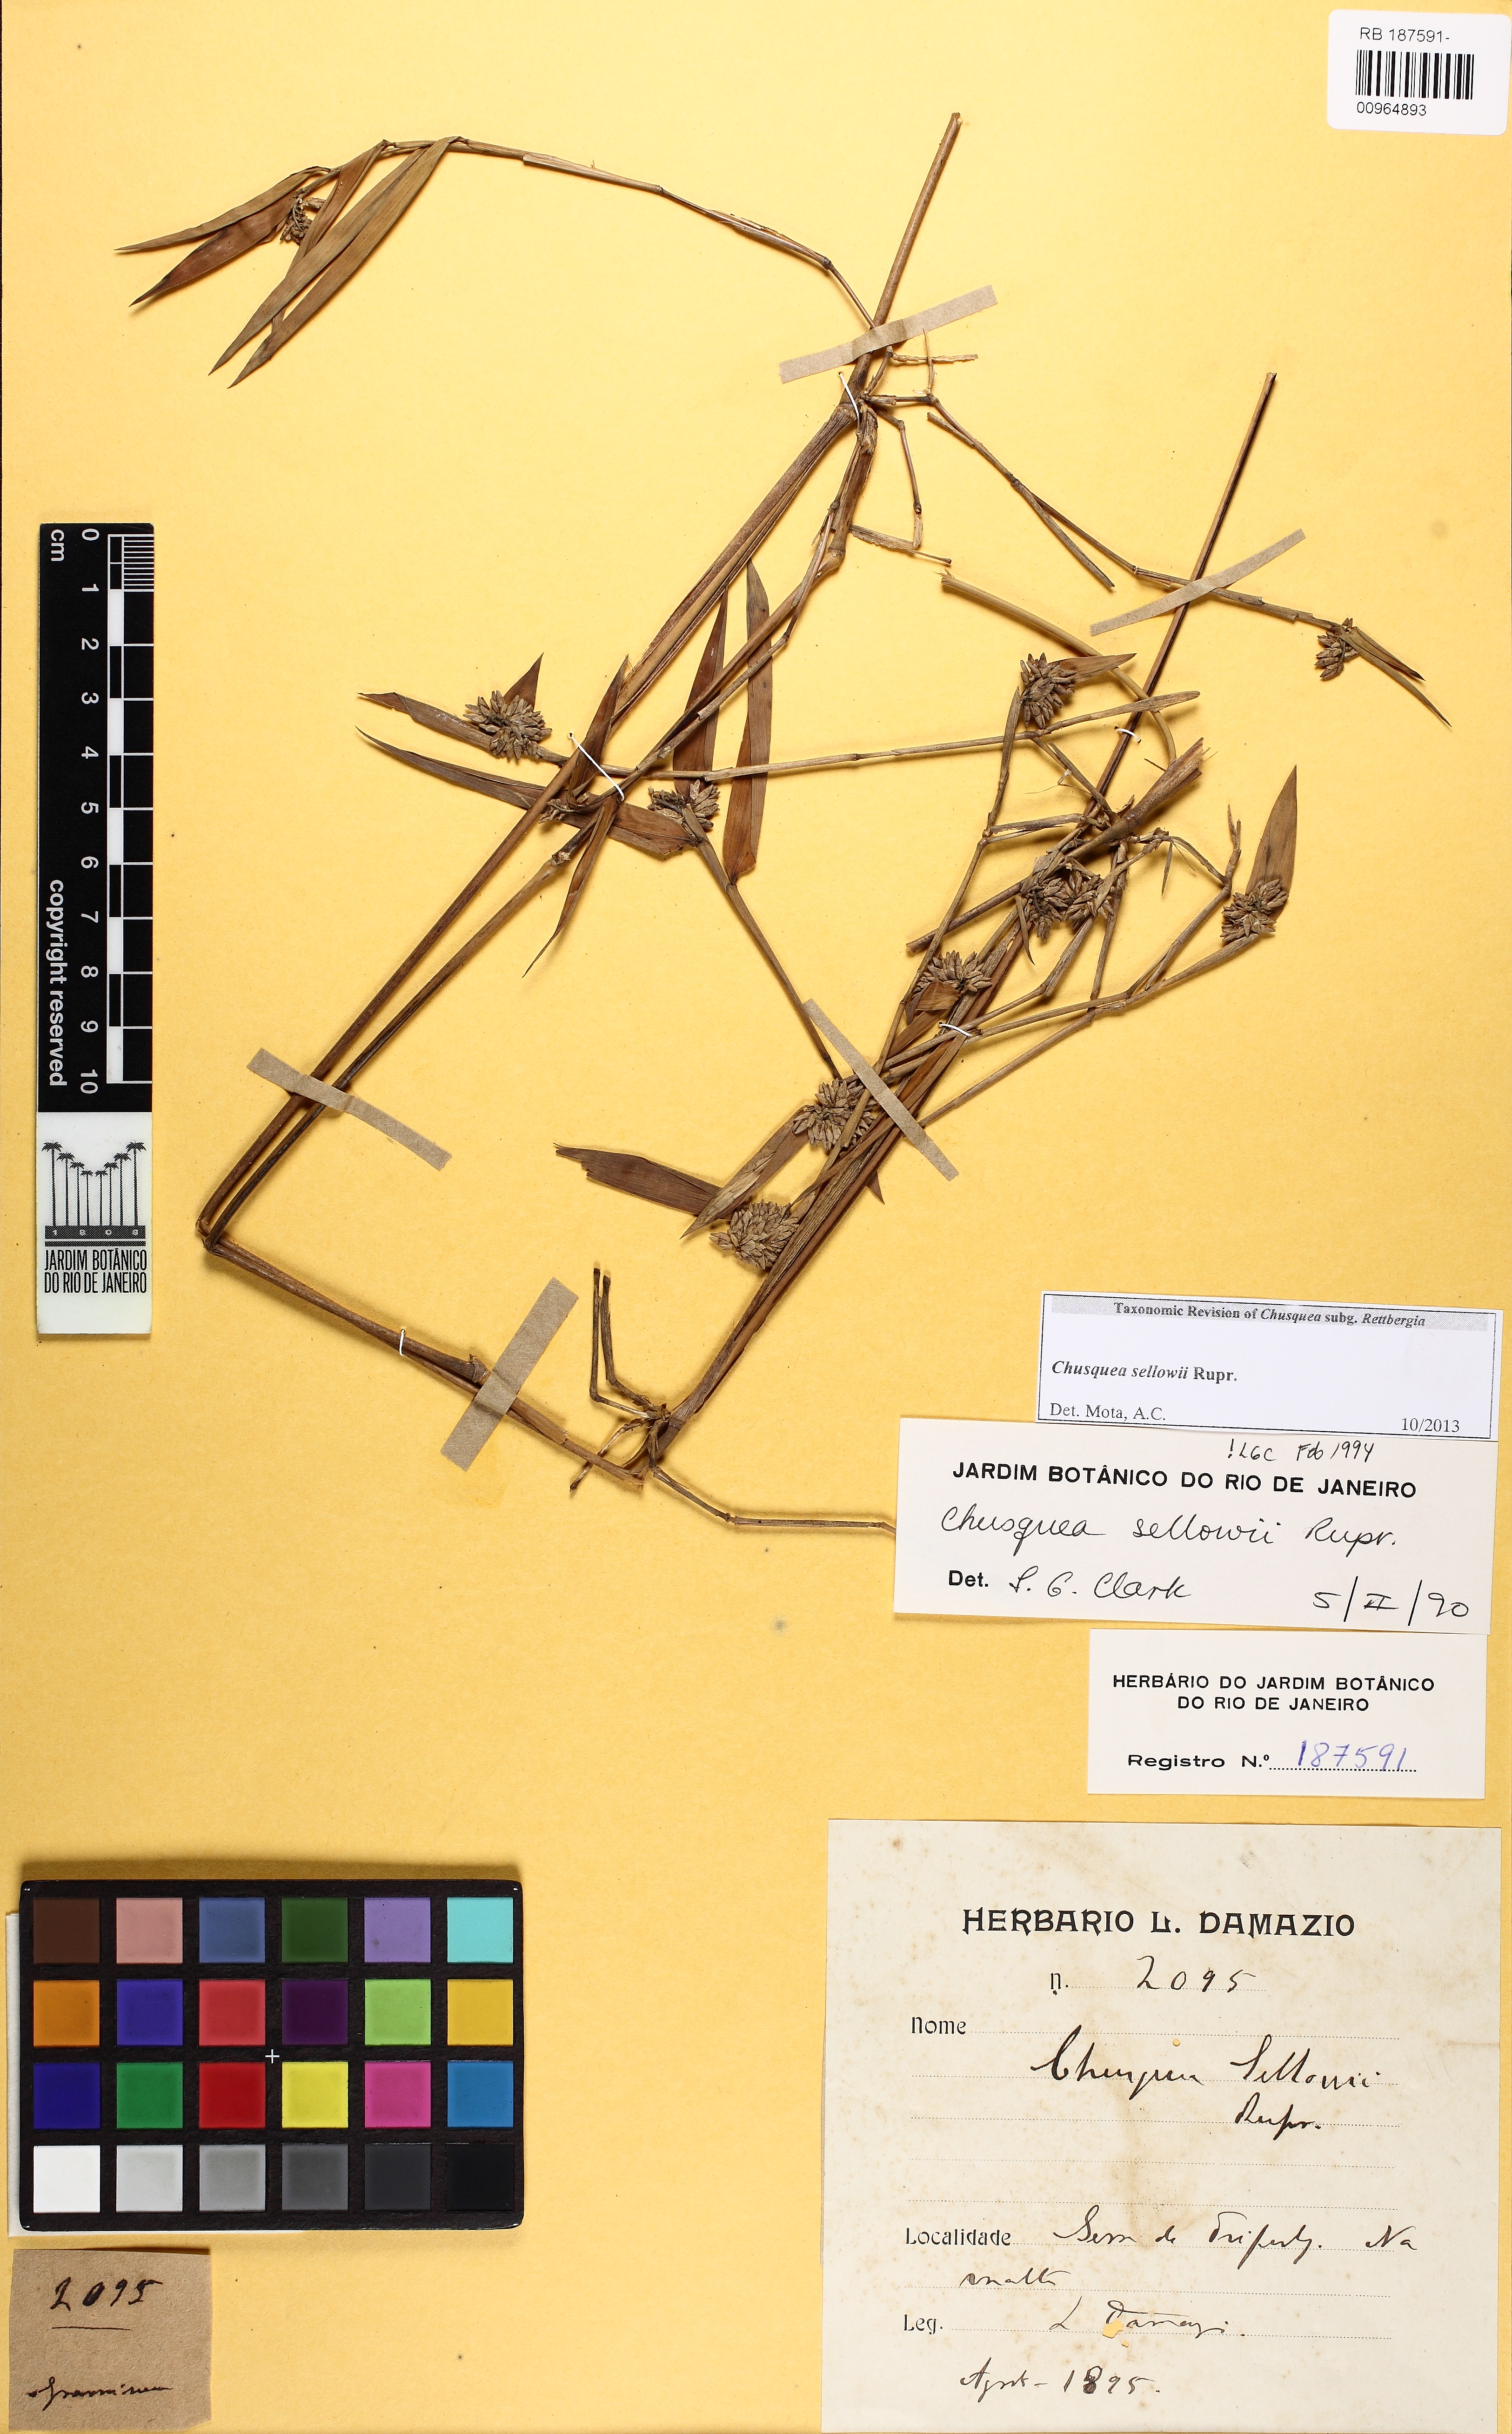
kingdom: Plantae
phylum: Tracheophyta
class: Liliopsida
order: Poales
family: Poaceae
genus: Chusquea
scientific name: Chusquea sellowii
